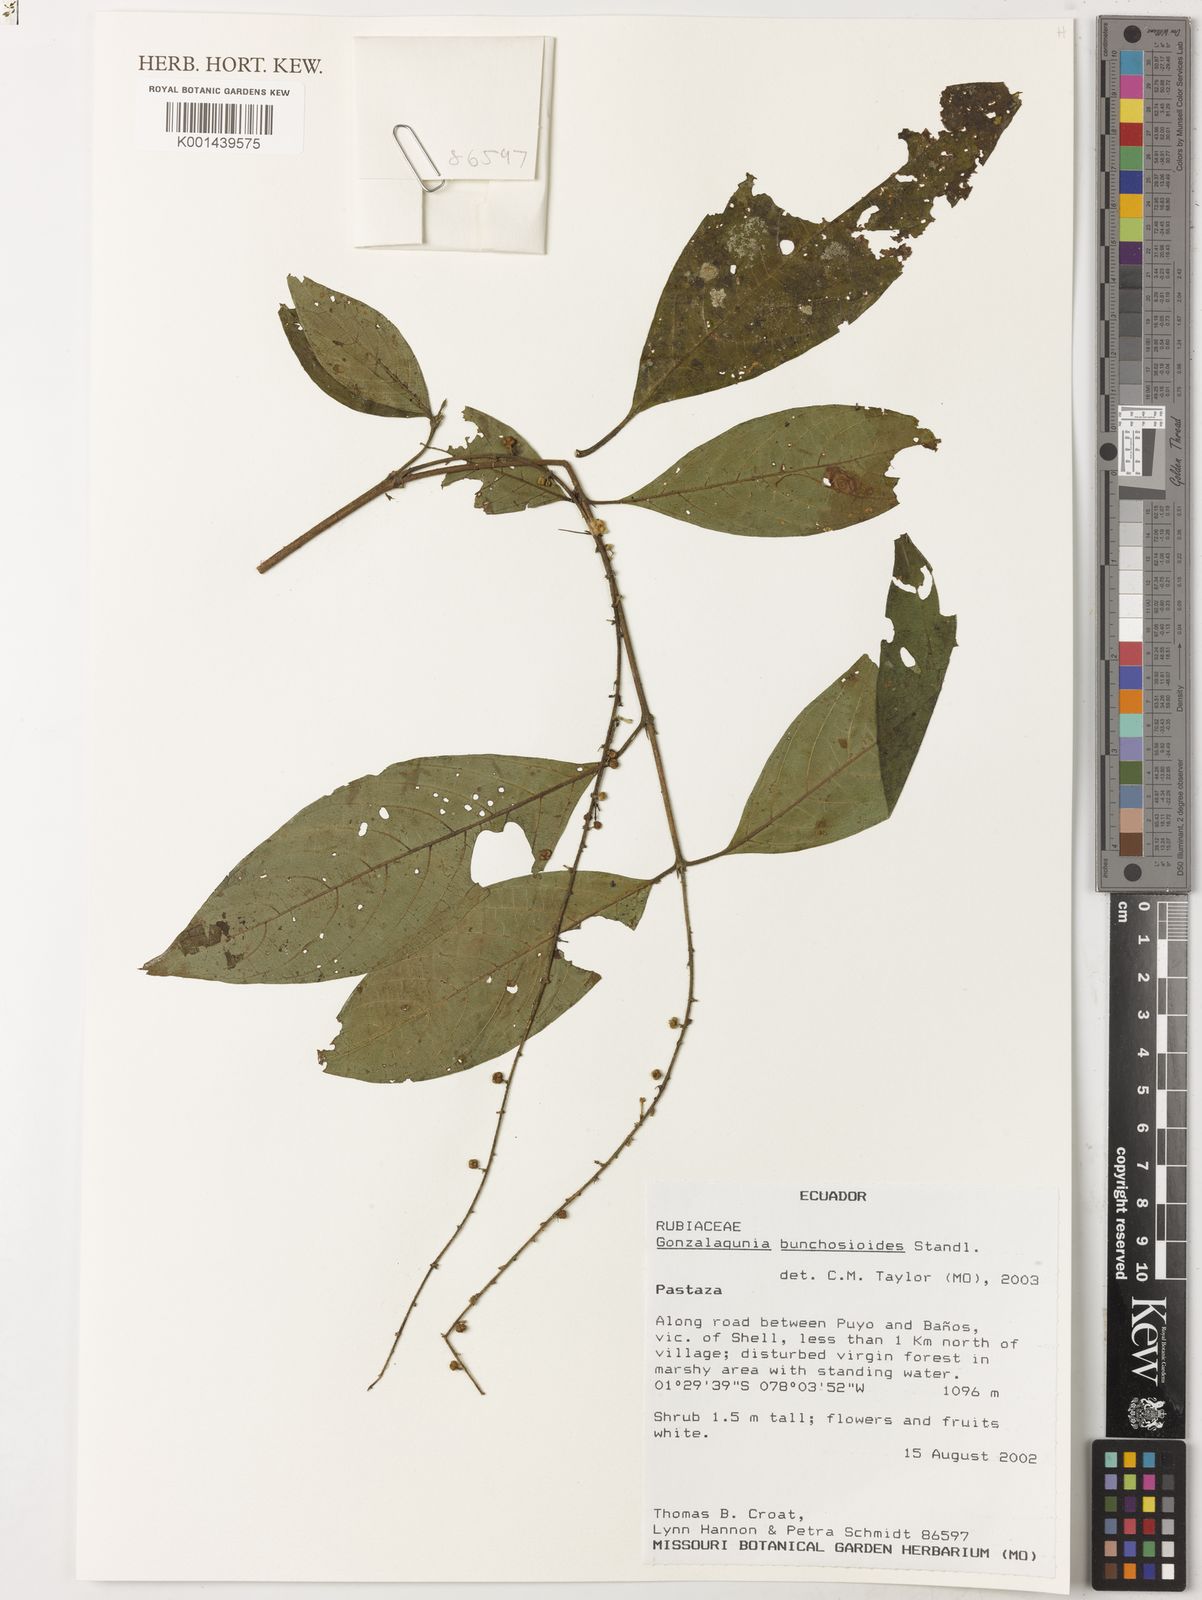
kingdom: Plantae
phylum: Tracheophyta
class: Magnoliopsida
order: Gentianales
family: Rubiaceae
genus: Gonzalagunia
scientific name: Gonzalagunia bunchosioides
